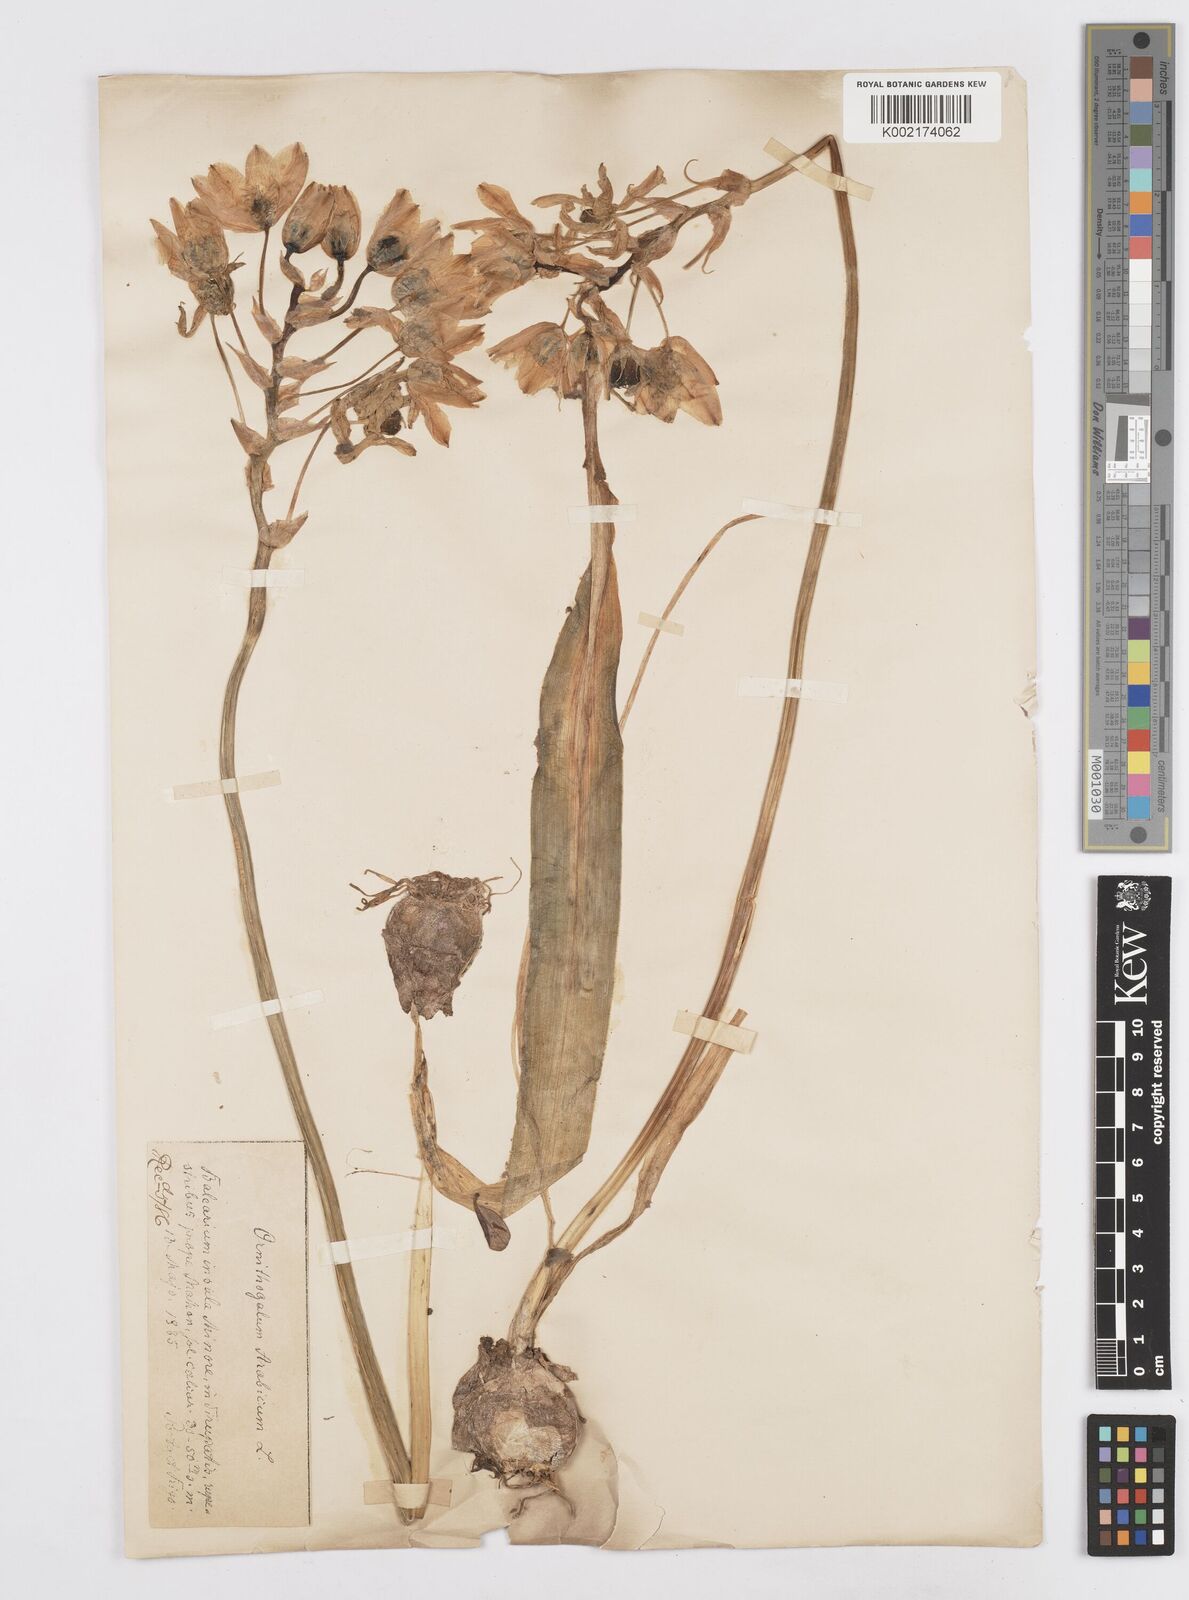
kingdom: Plantae
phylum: Tracheophyta
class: Liliopsida
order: Asparagales
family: Asparagaceae
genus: Ornithogalum
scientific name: Ornithogalum arabicum
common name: Arabian starflower
